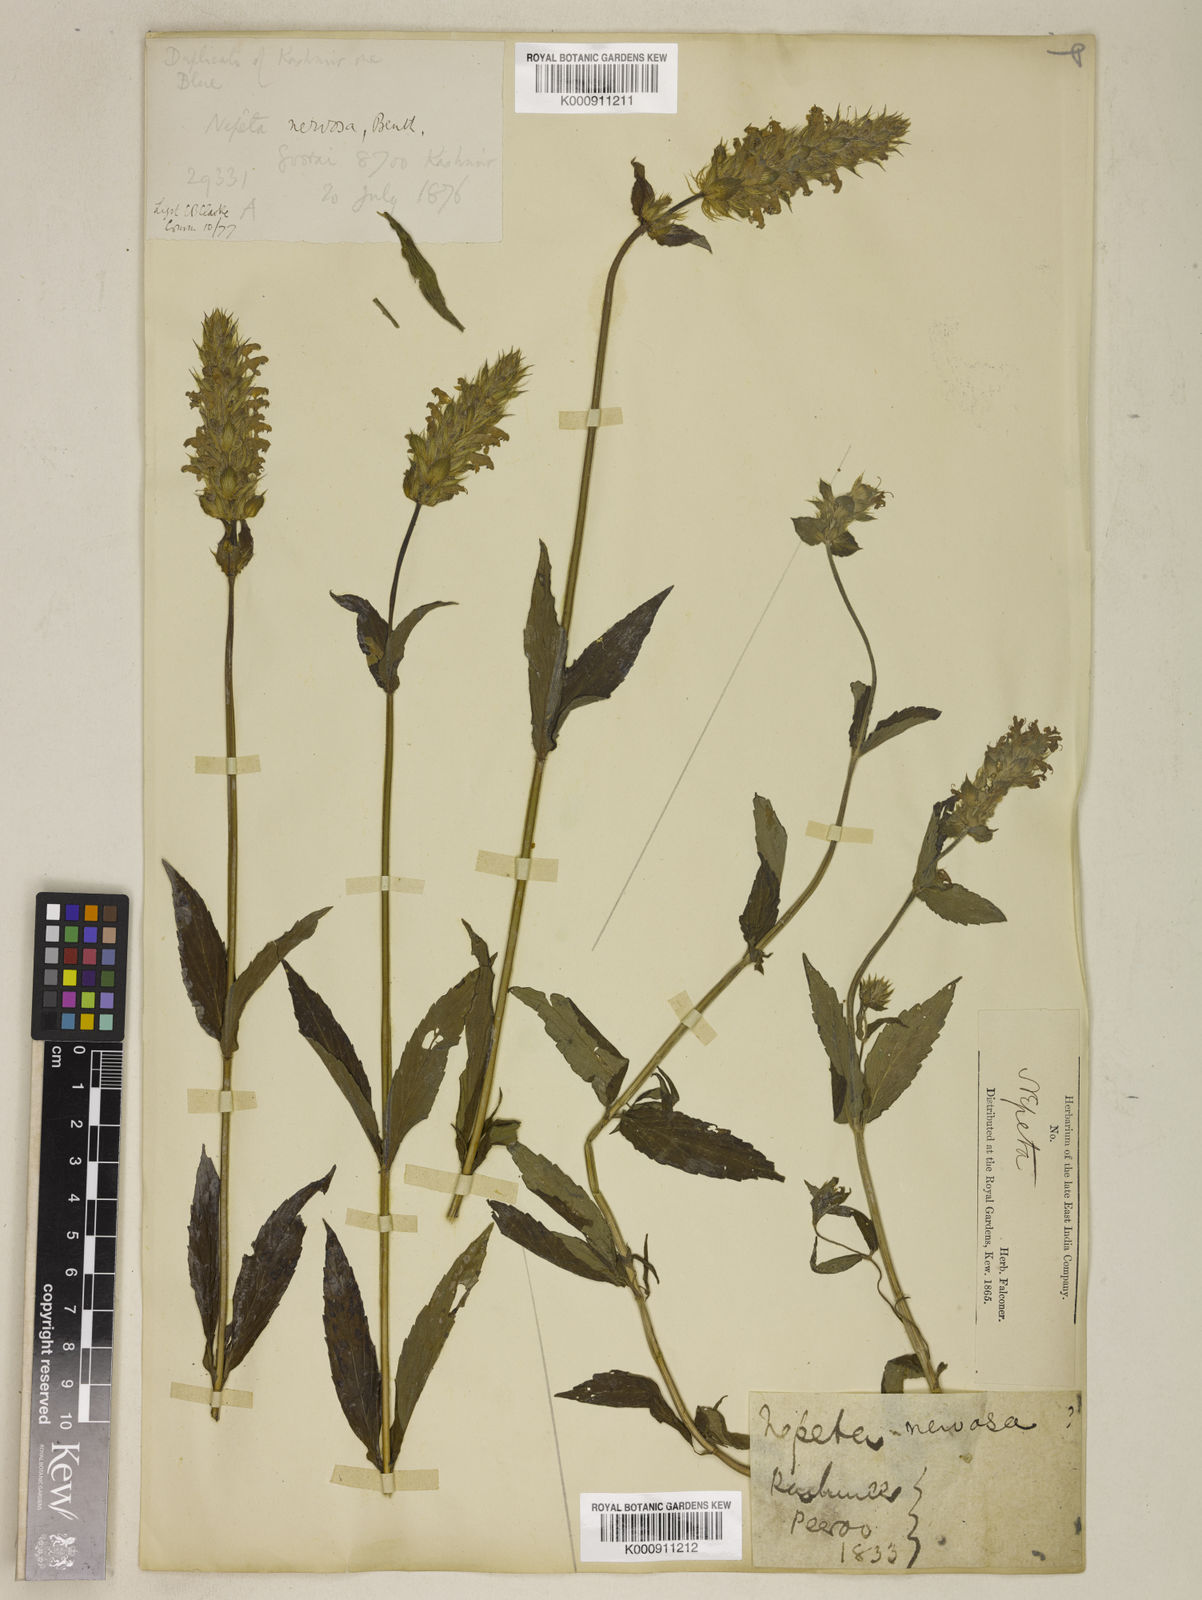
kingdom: Plantae
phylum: Tracheophyta
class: Magnoliopsida
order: Lamiales
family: Lamiaceae
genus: Nepeta
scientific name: Nepeta nervosa
